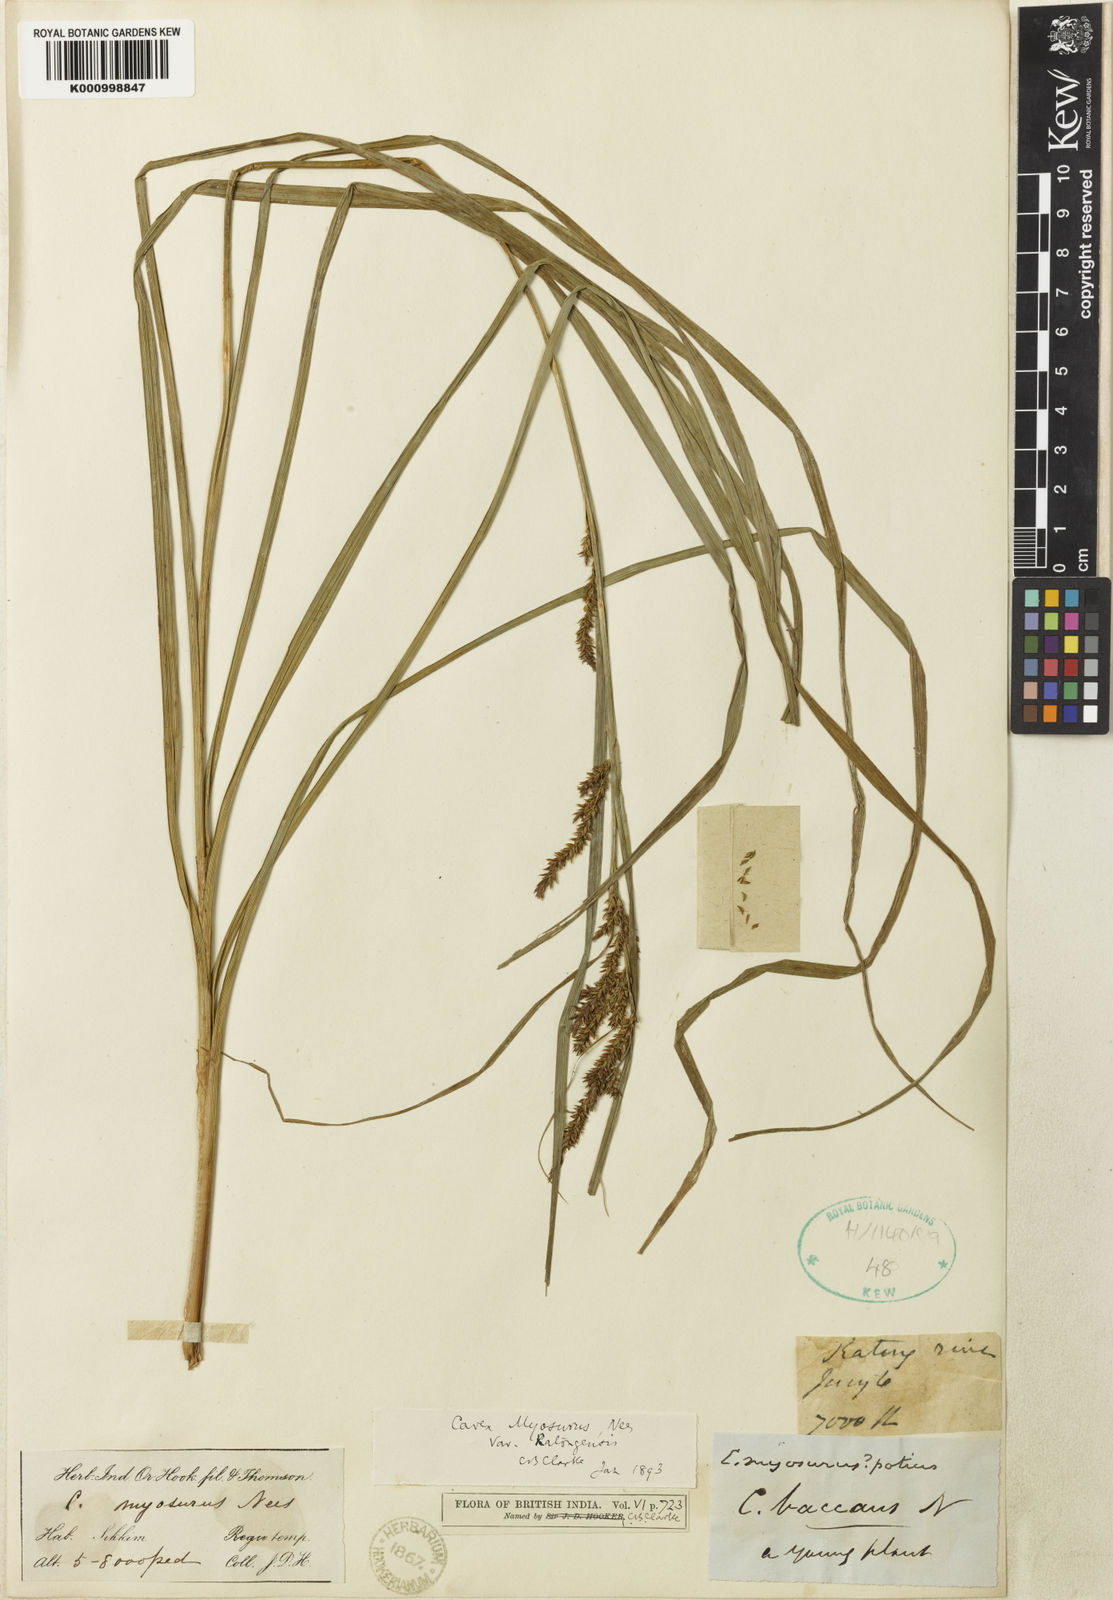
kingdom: Plantae
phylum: Tracheophyta
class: Liliopsida
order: Poales
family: Cyperaceae
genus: Carex
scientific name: Carex ratongensis
